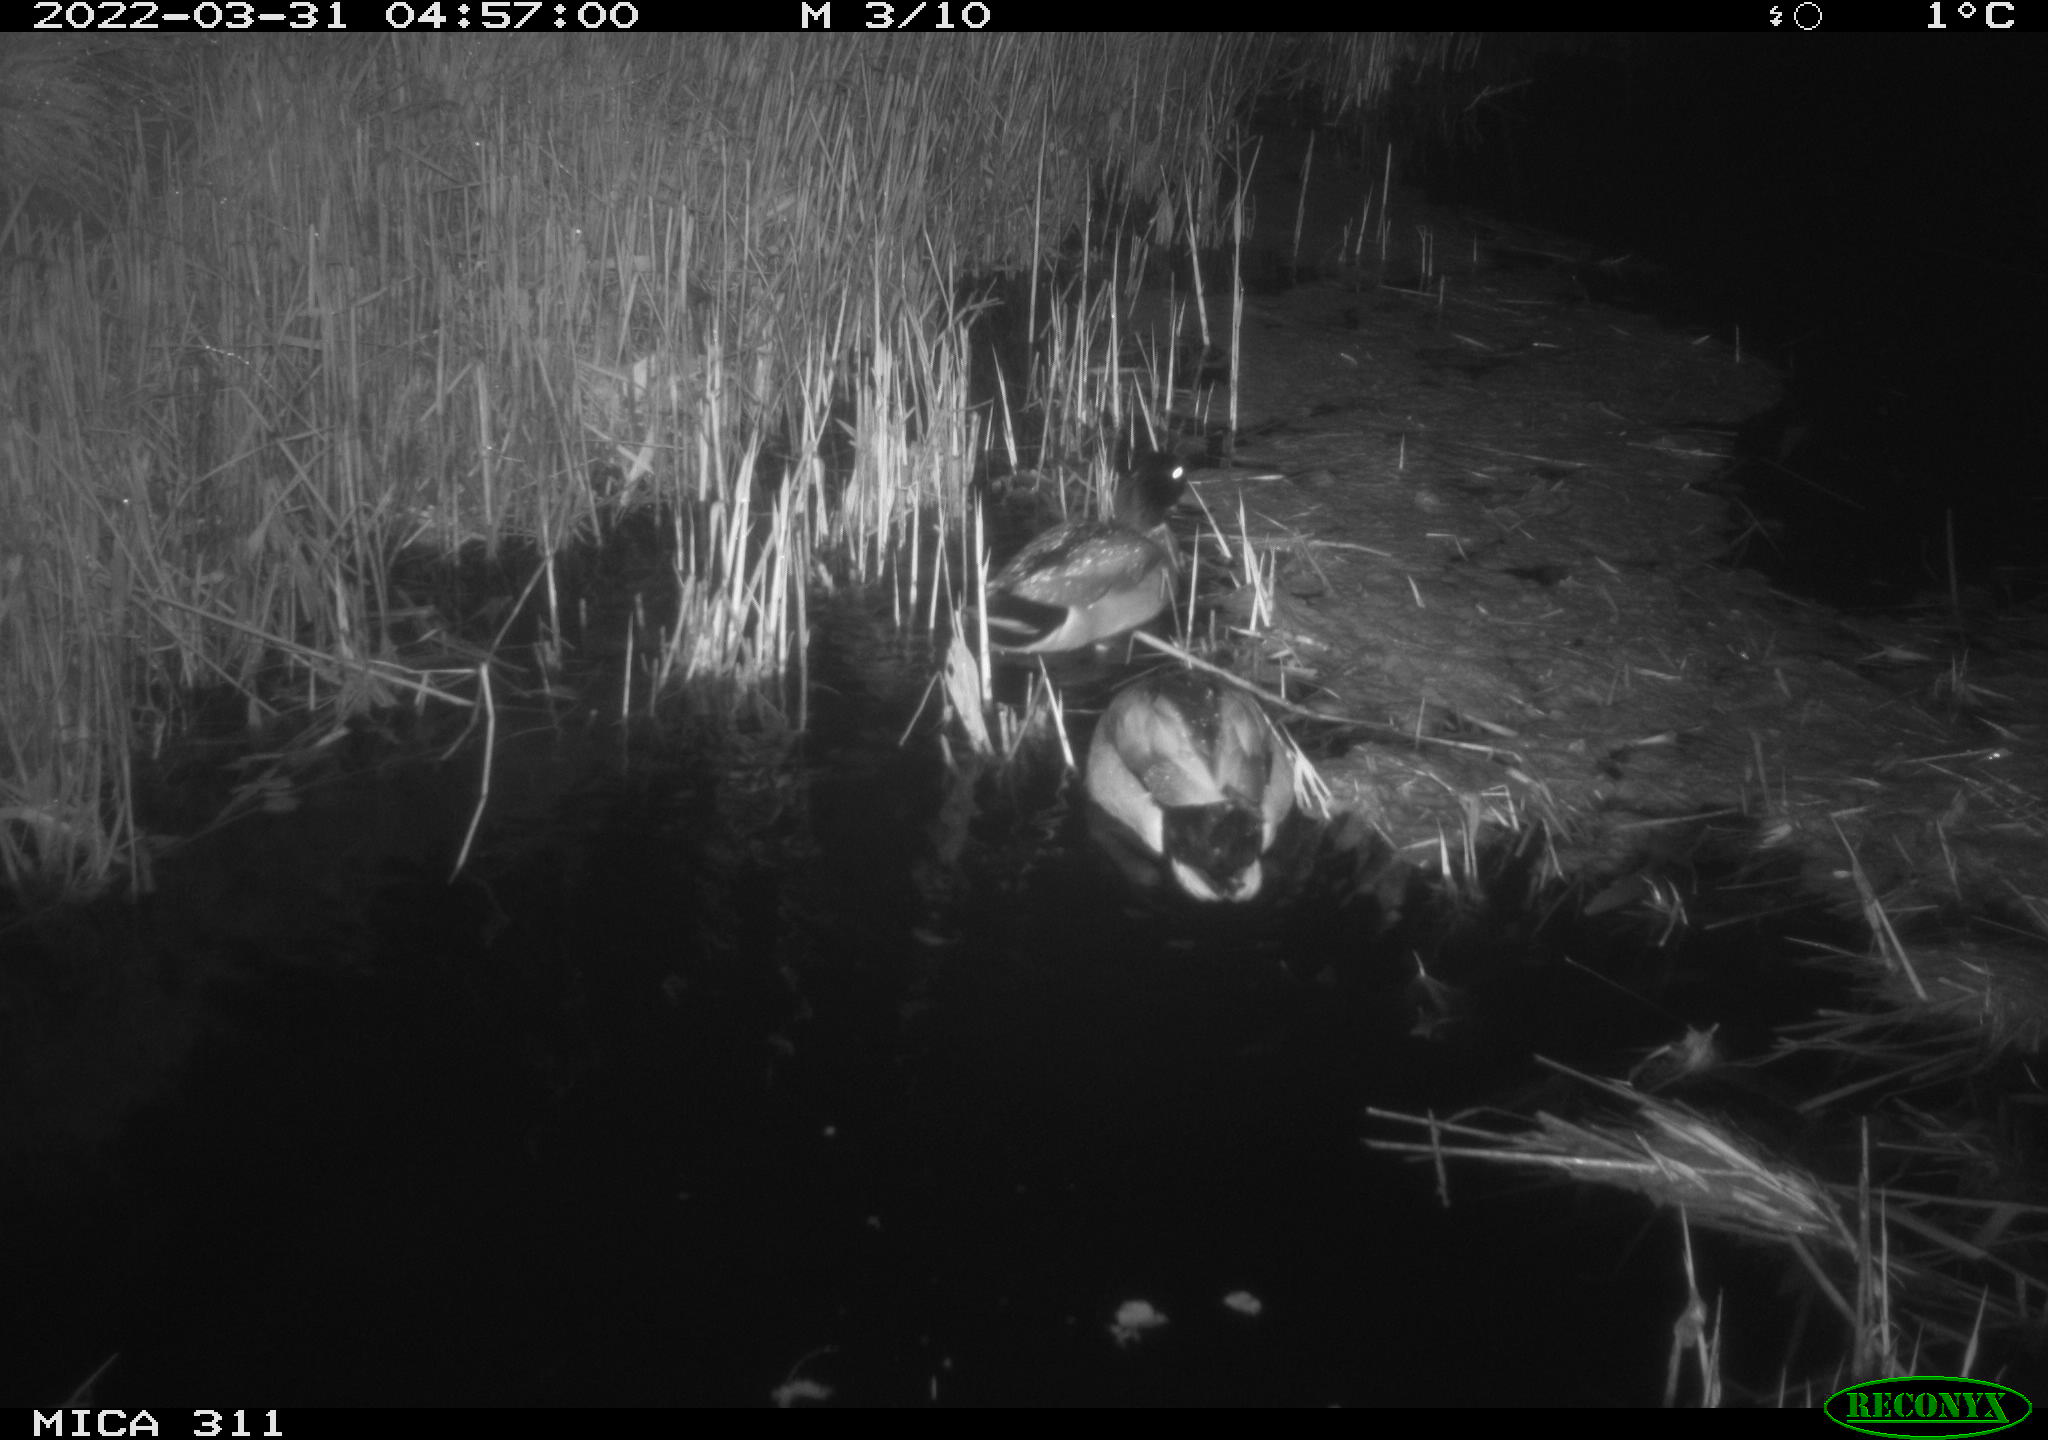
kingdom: Animalia
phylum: Chordata
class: Aves
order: Anseriformes
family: Anatidae
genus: Anas
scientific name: Anas platyrhynchos
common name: Mallard
